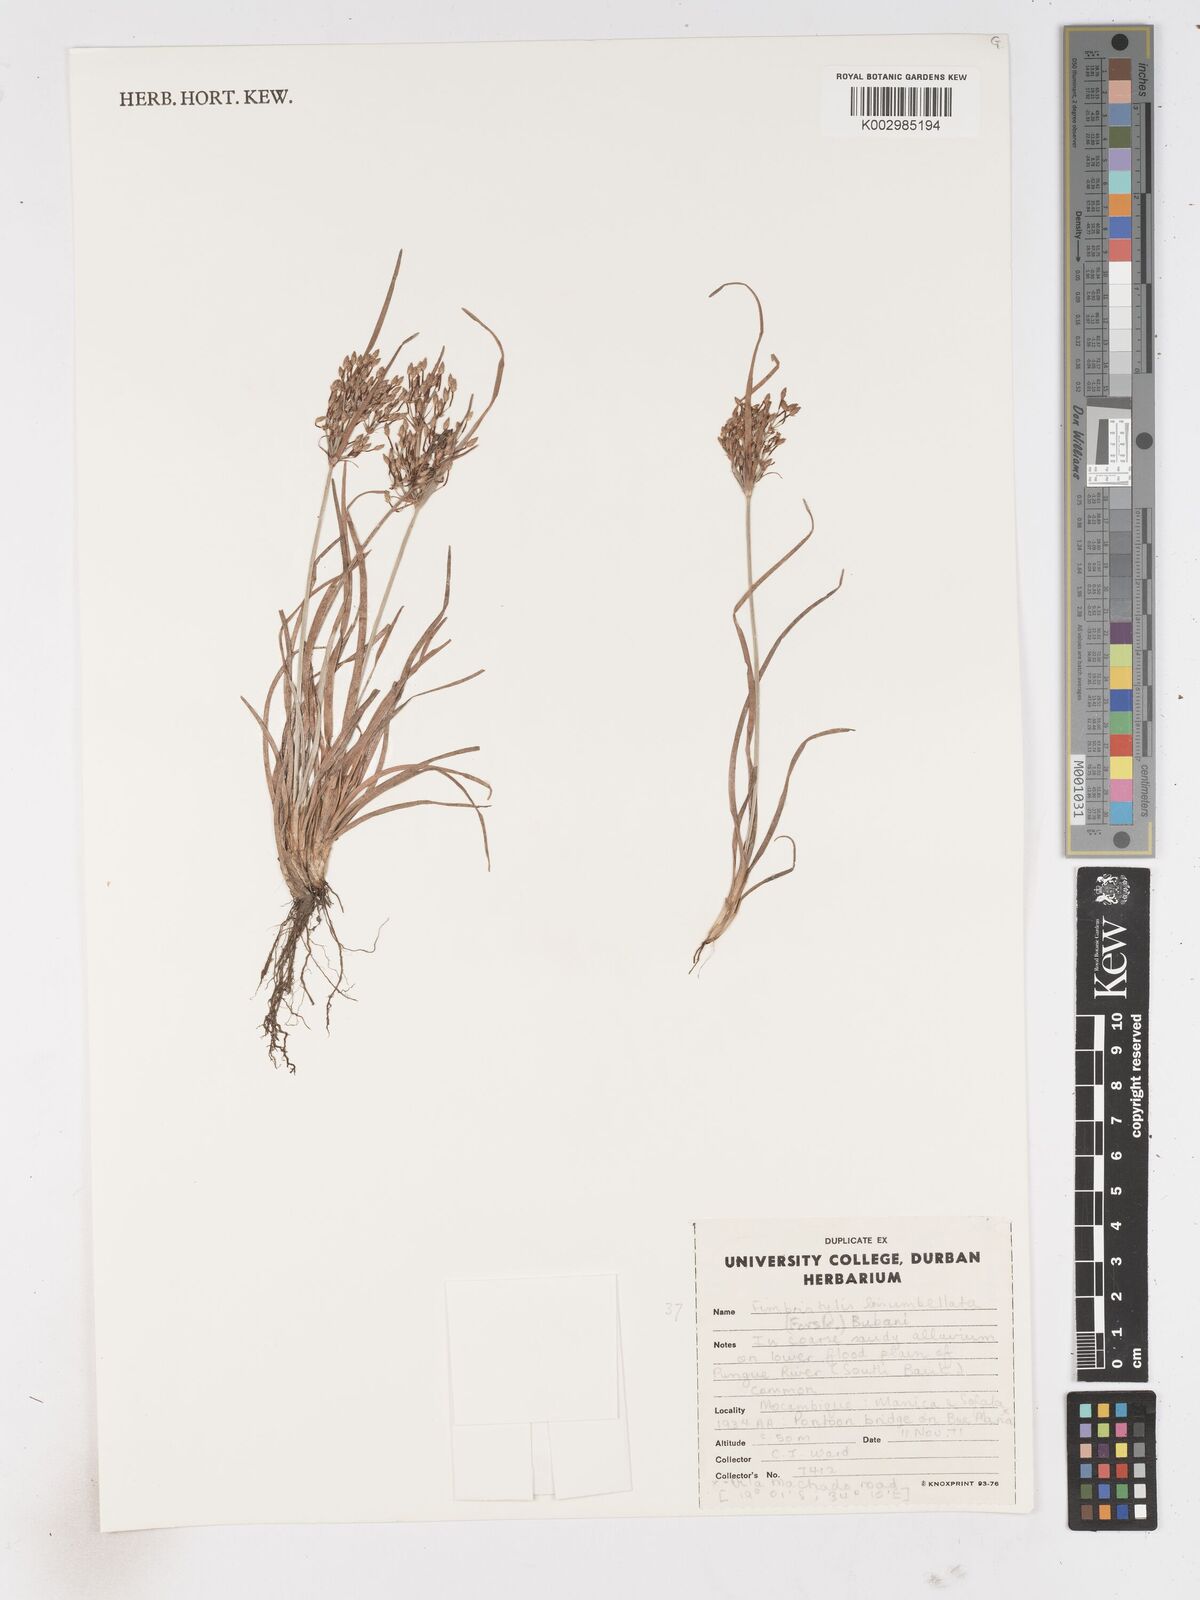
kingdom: Plantae
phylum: Tracheophyta
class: Liliopsida
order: Poales
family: Cyperaceae
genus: Fimbristylis
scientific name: Fimbristylis bisumbellata
